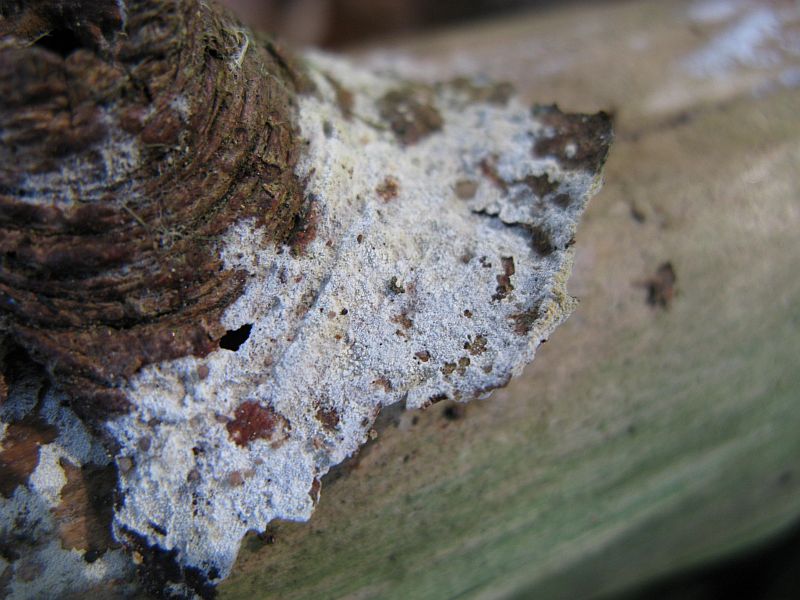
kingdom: Fungi
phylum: Basidiomycota
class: Agaricomycetes
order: Hymenochaetales
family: Schizoporaceae
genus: Xylodon
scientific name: Xylodon brevisetus
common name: tætvortet tandsvamp
